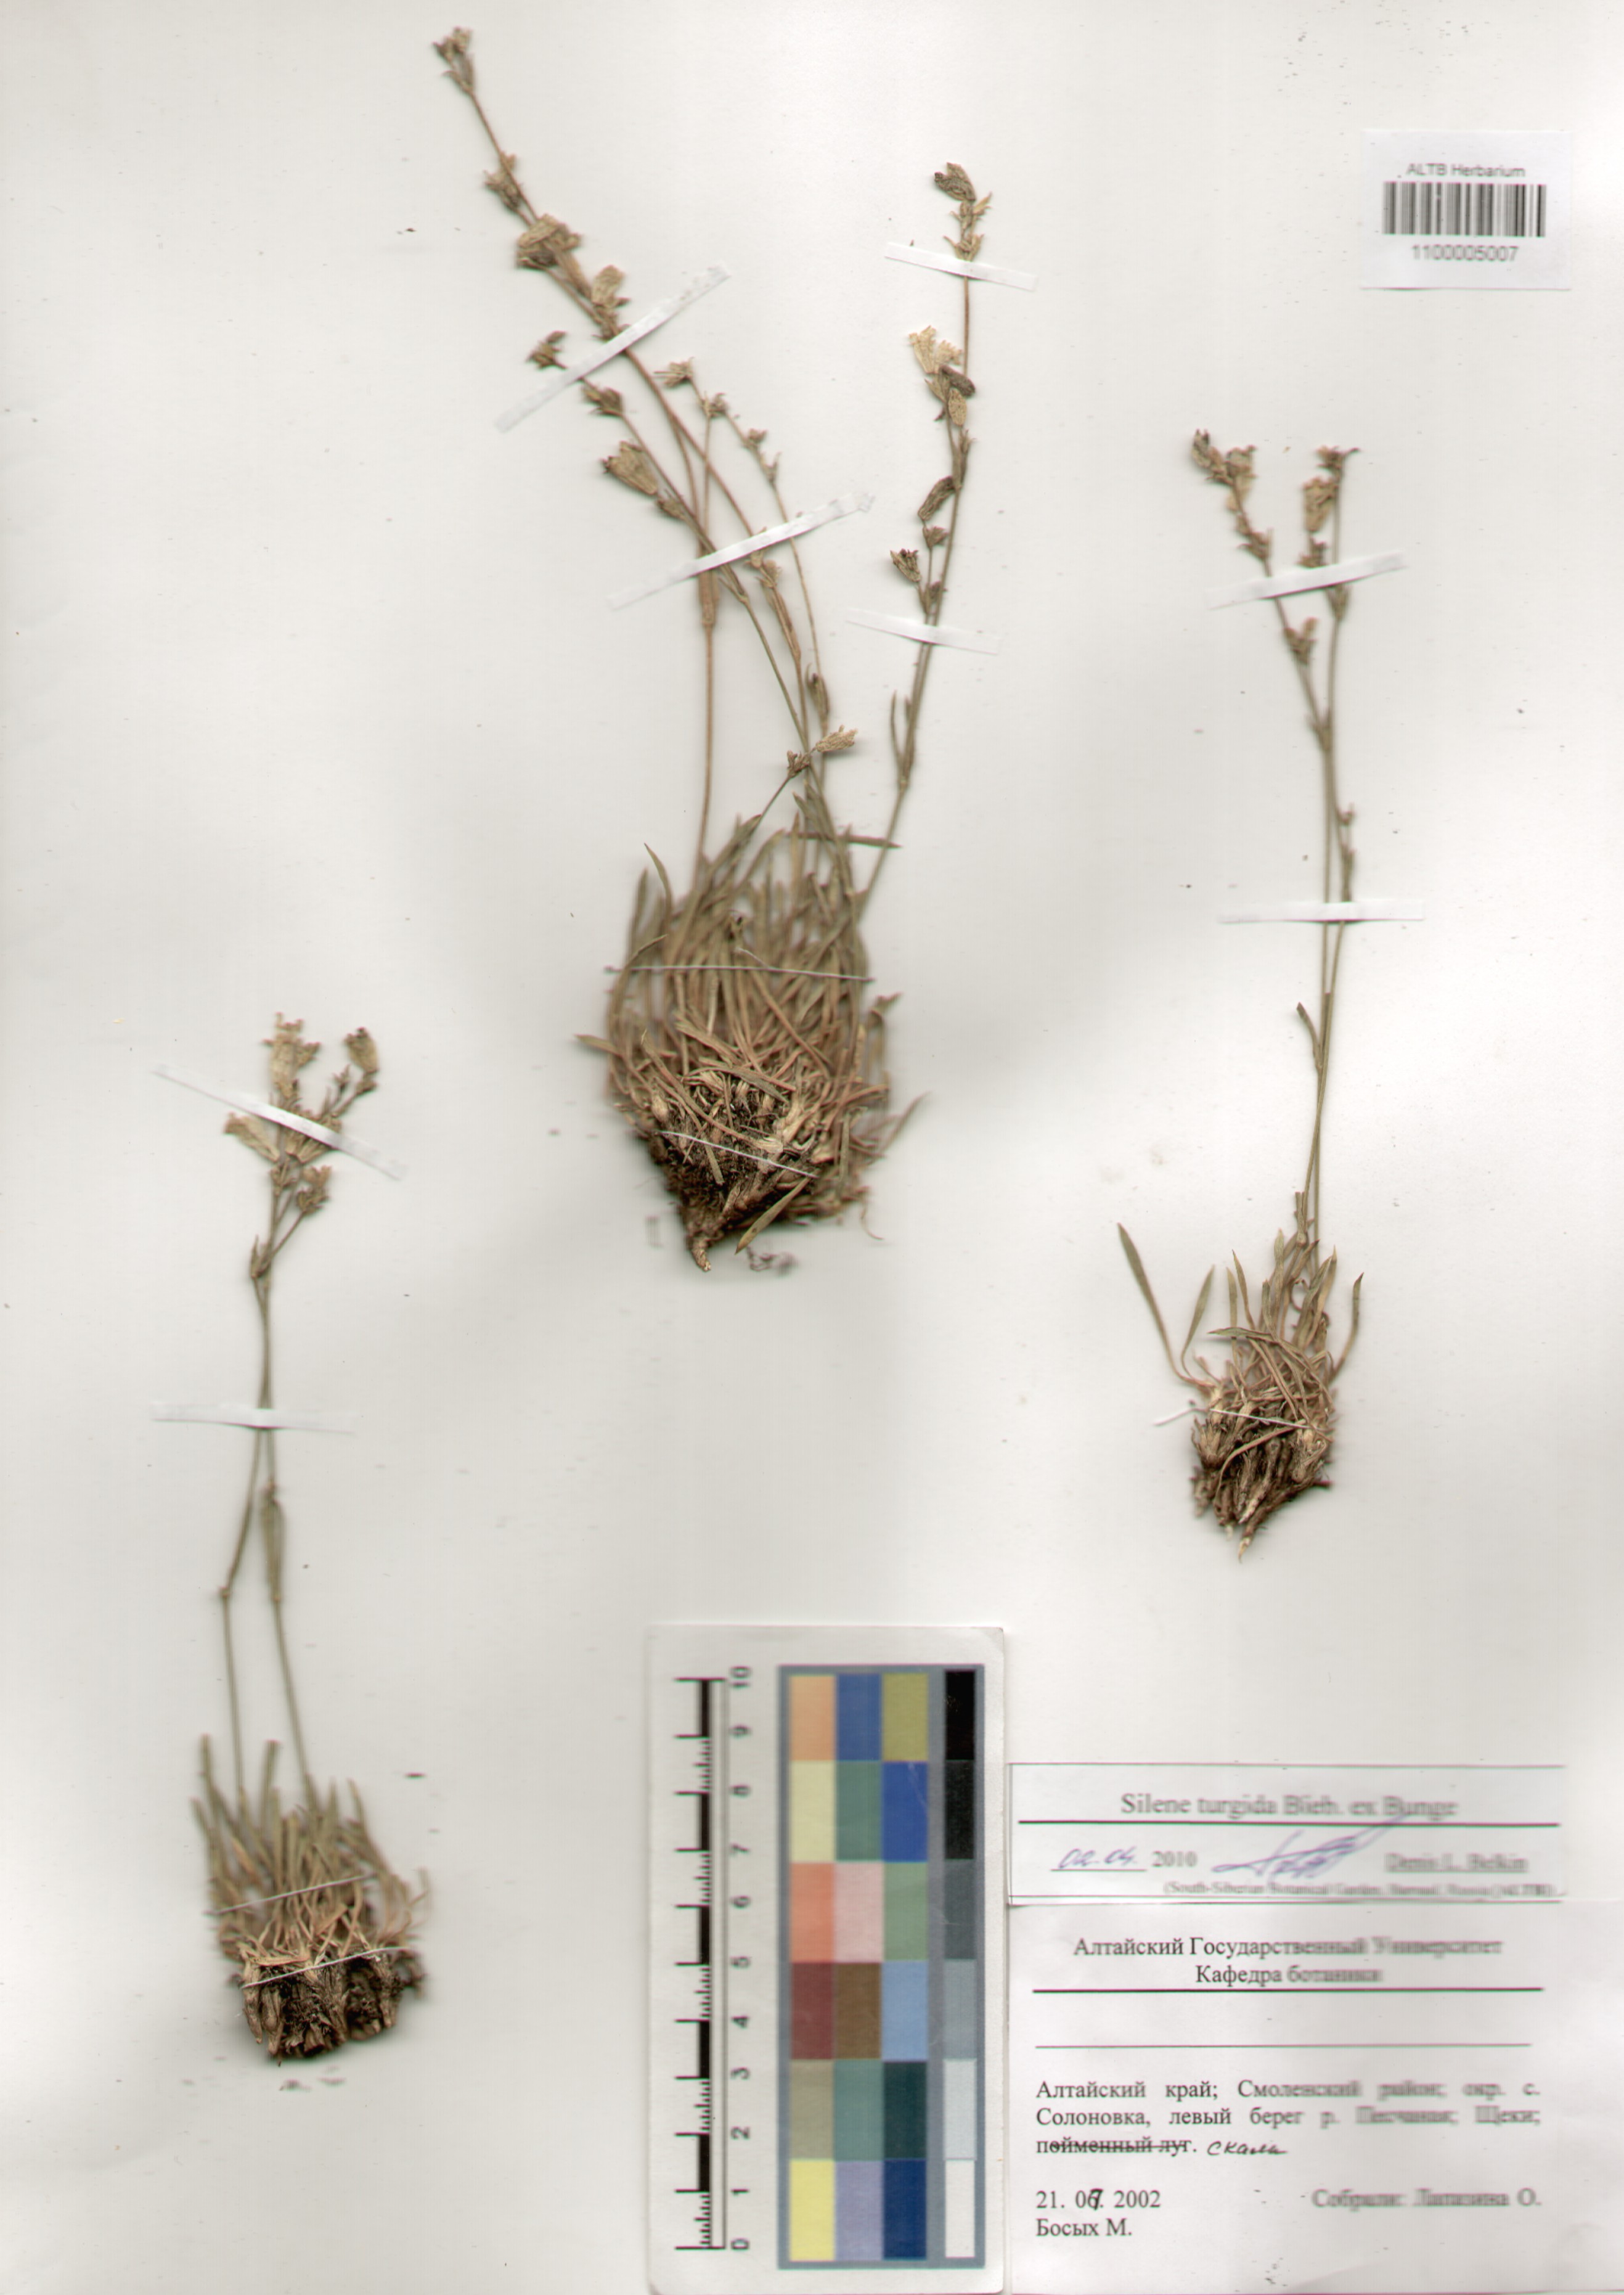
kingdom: Plantae
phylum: Tracheophyta
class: Magnoliopsida
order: Caryophyllales
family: Caryophyllaceae
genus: Silene
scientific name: Silene turgida
